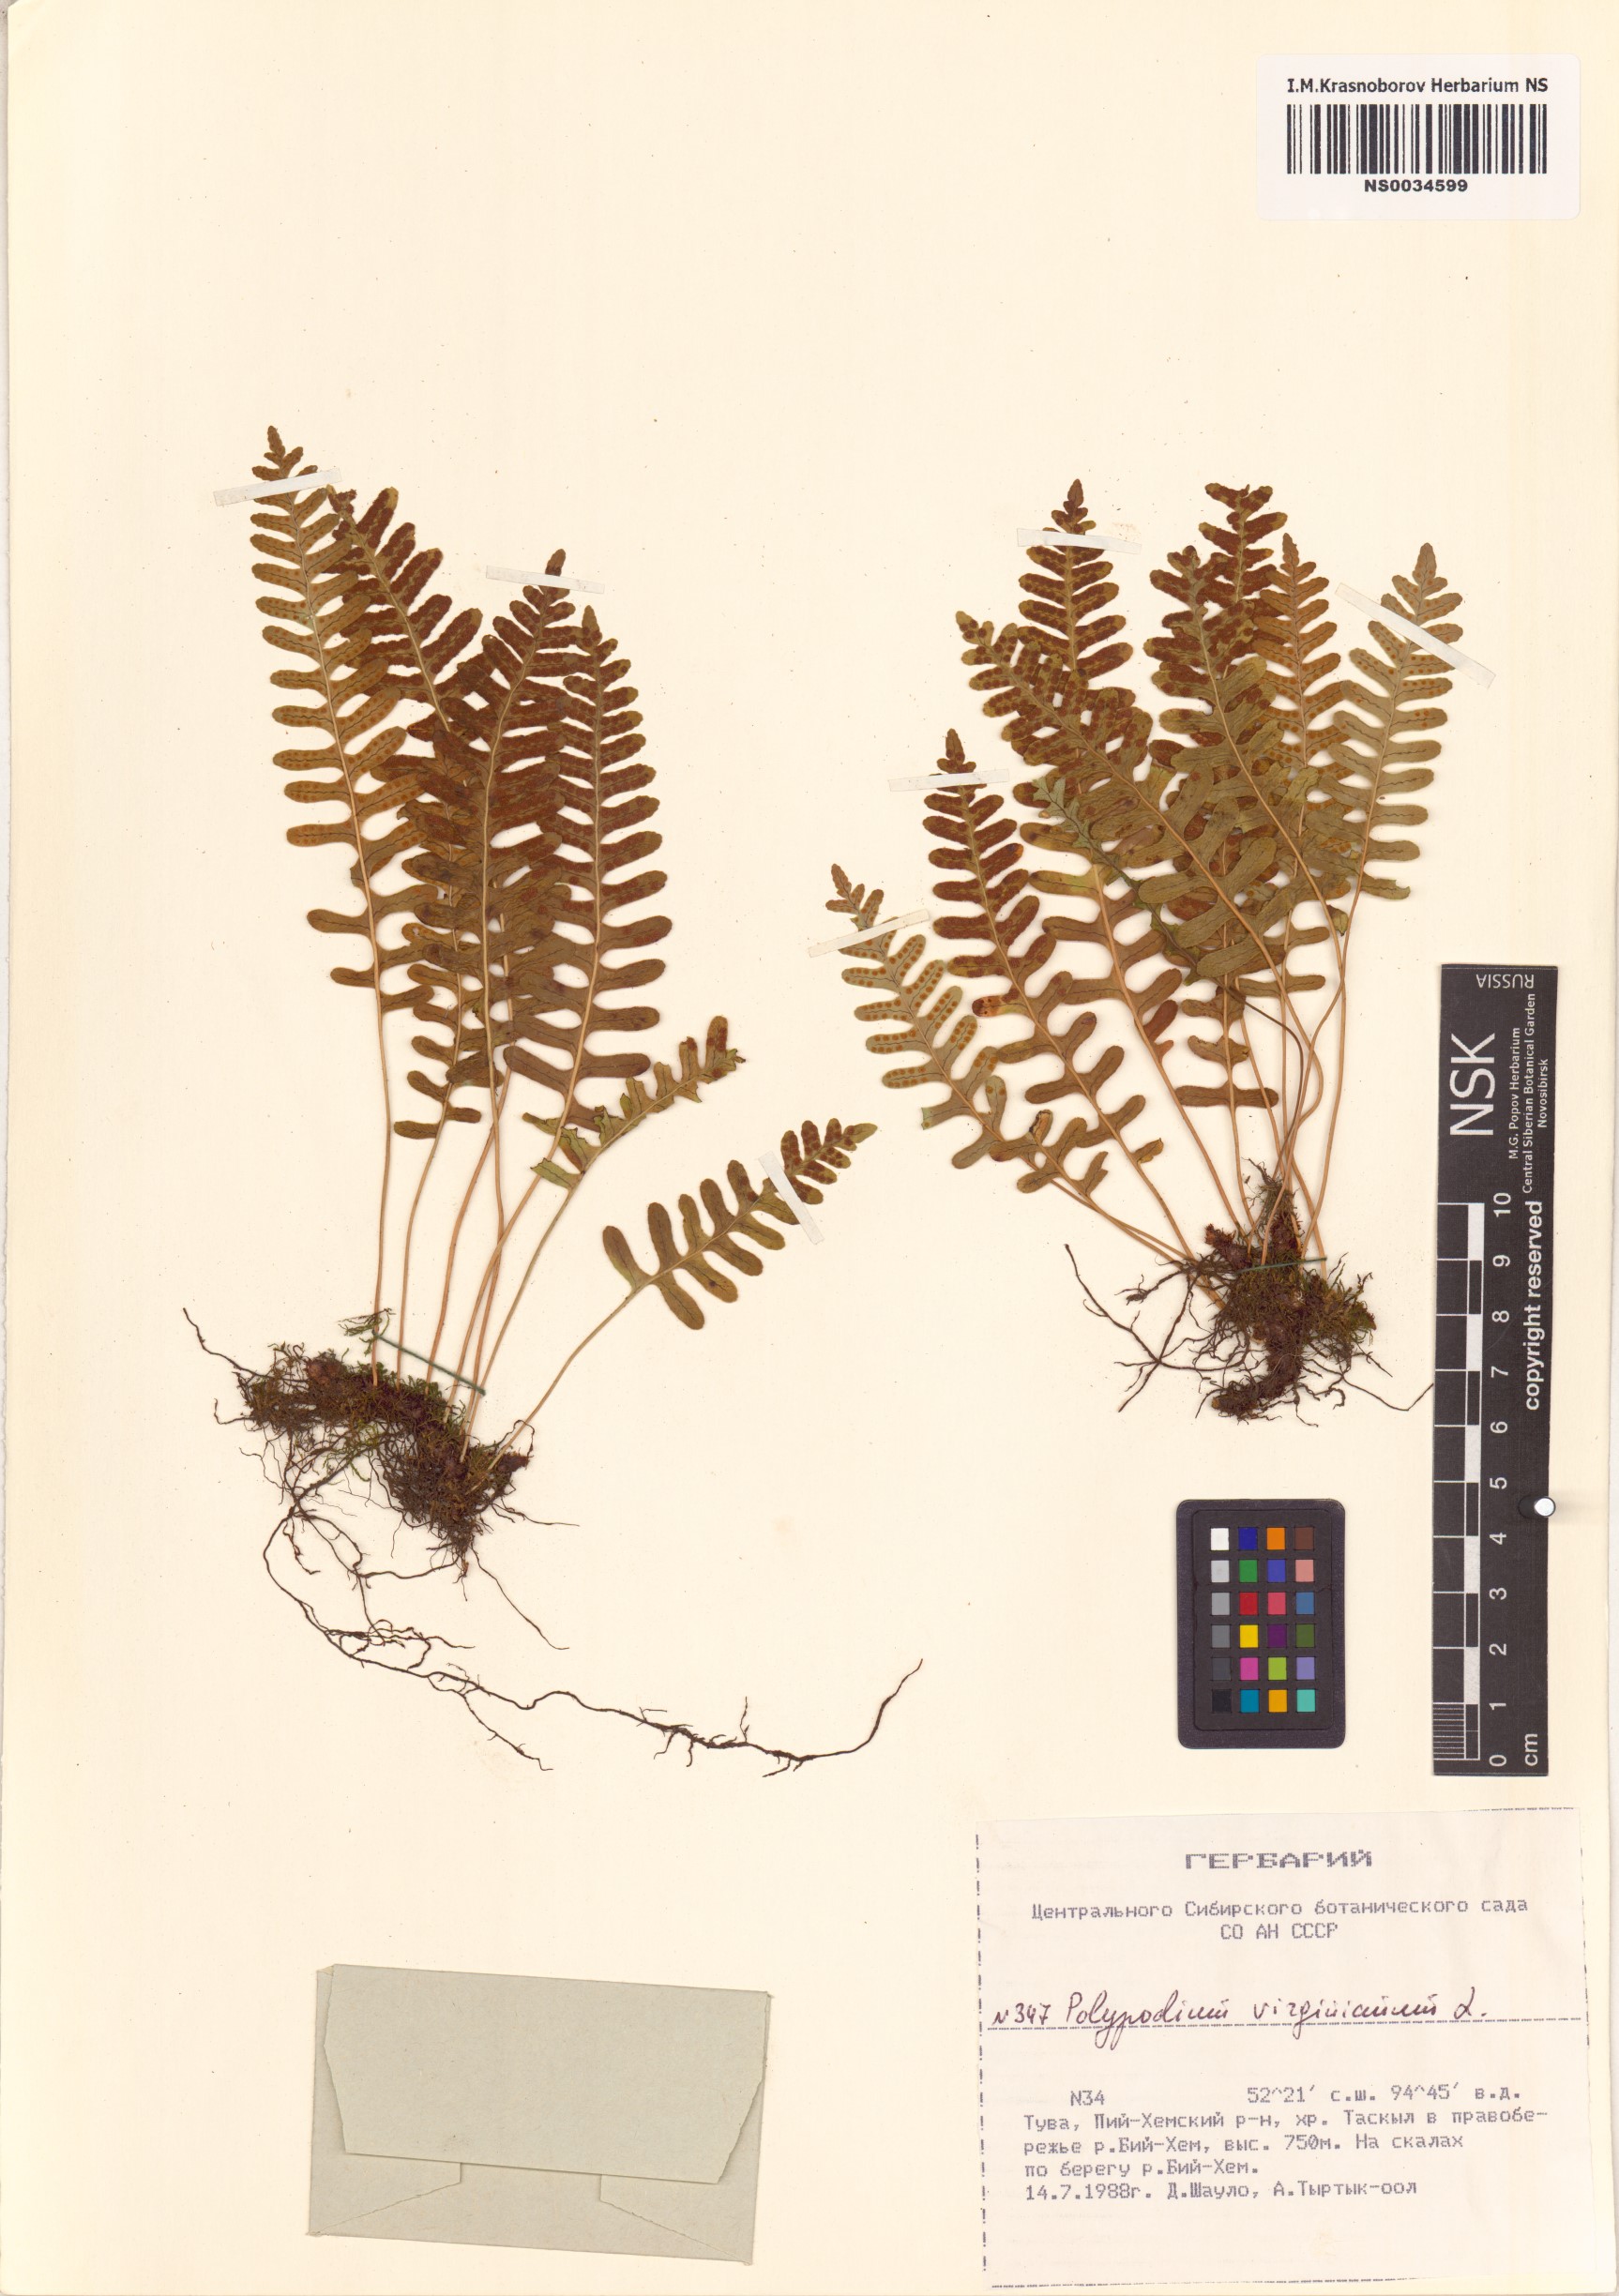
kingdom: Plantae
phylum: Tracheophyta
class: Polypodiopsida
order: Polypodiales
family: Polypodiaceae
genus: Polypodium
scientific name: Polypodium virginianum
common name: American wall fern
